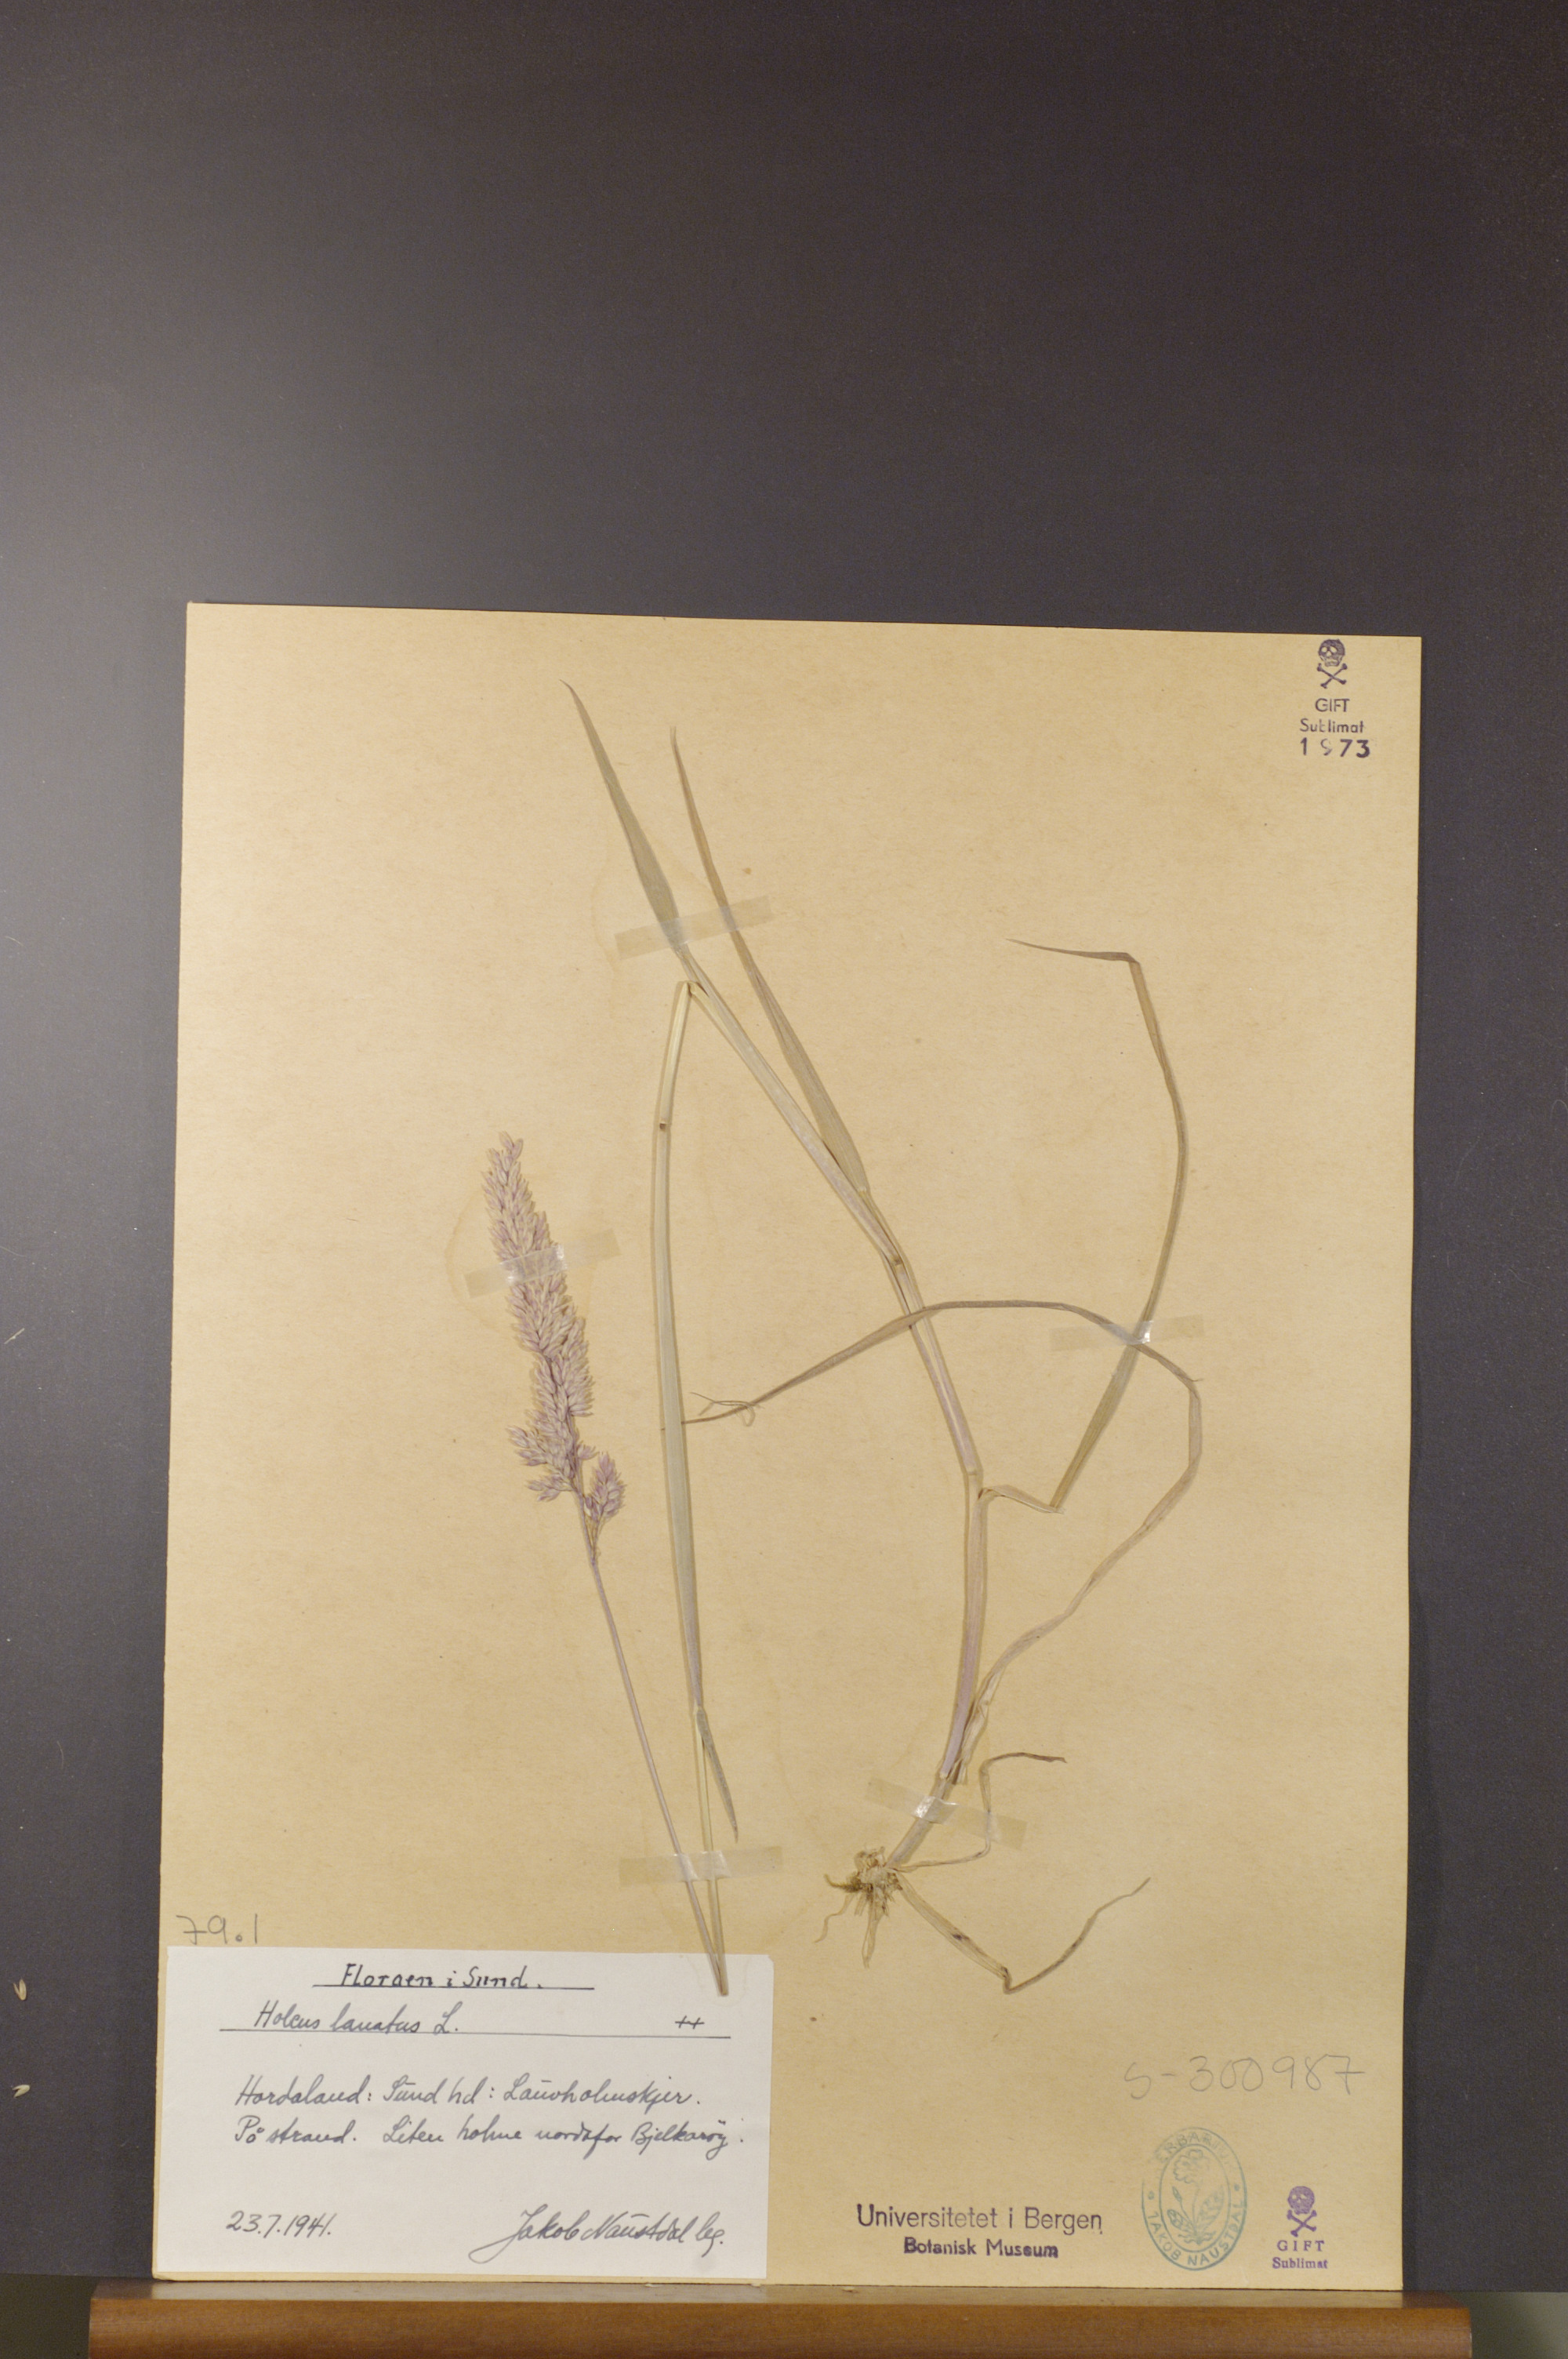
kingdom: Plantae
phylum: Tracheophyta
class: Liliopsida
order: Poales
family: Poaceae
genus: Holcus
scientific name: Holcus lanatus
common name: Yorkshire-fog
